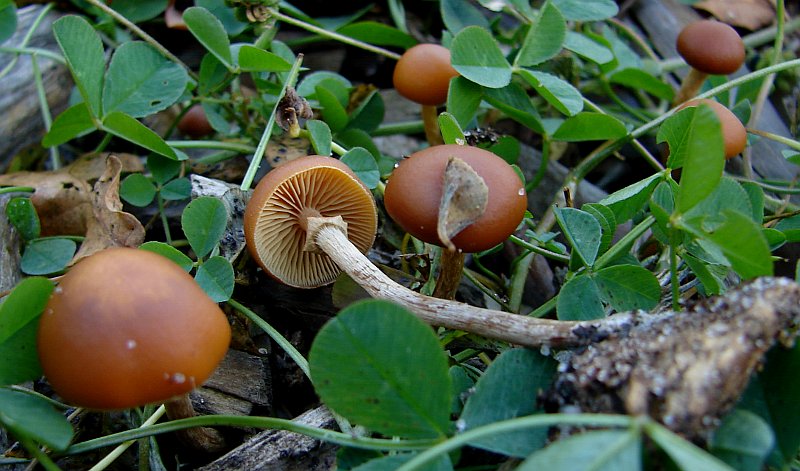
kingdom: Fungi
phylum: Basidiomycota
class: Agaricomycetes
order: Agaricales
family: Hymenogastraceae
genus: Galerina
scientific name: Galerina marginata
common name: randbæltet hjelmhat
